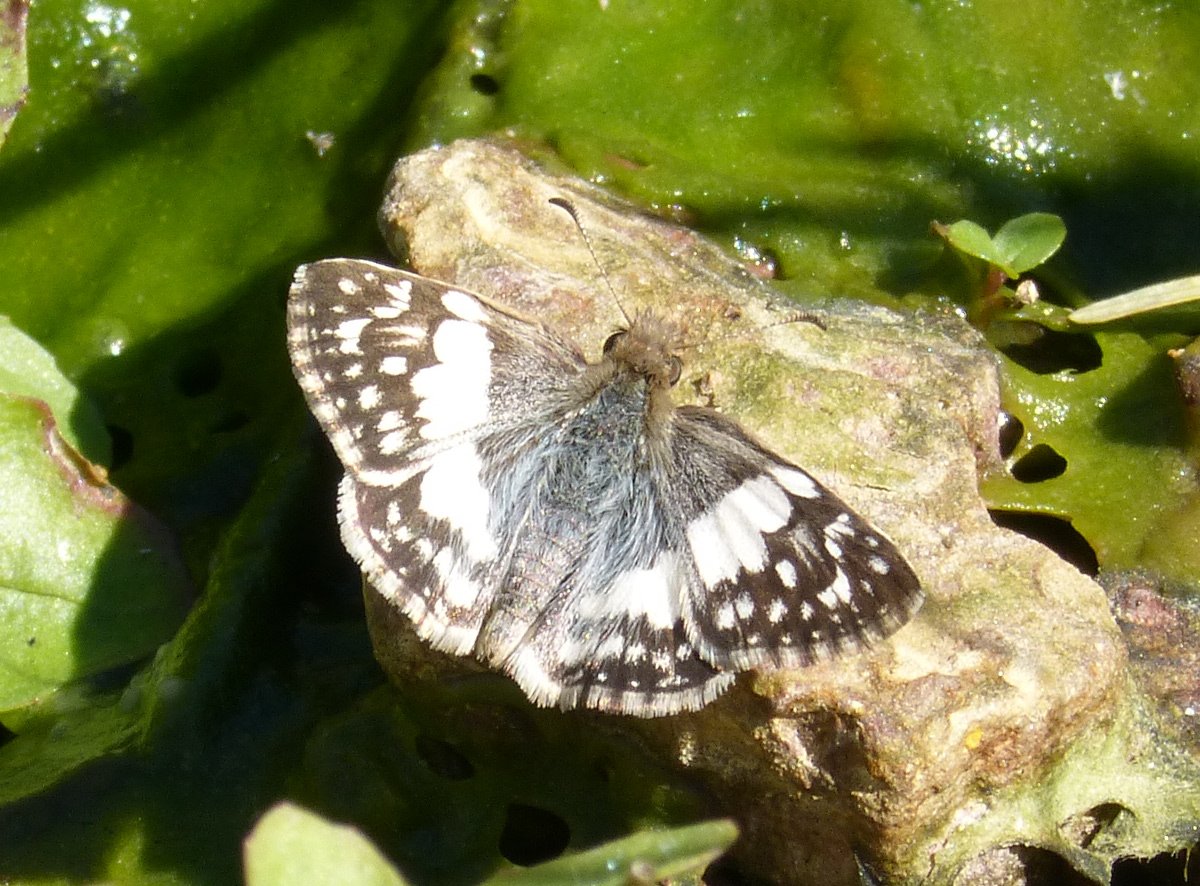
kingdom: Animalia
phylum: Arthropoda
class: Insecta
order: Lepidoptera
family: Hesperiidae
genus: Heliopyrgus
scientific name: Heliopyrgus domicella
